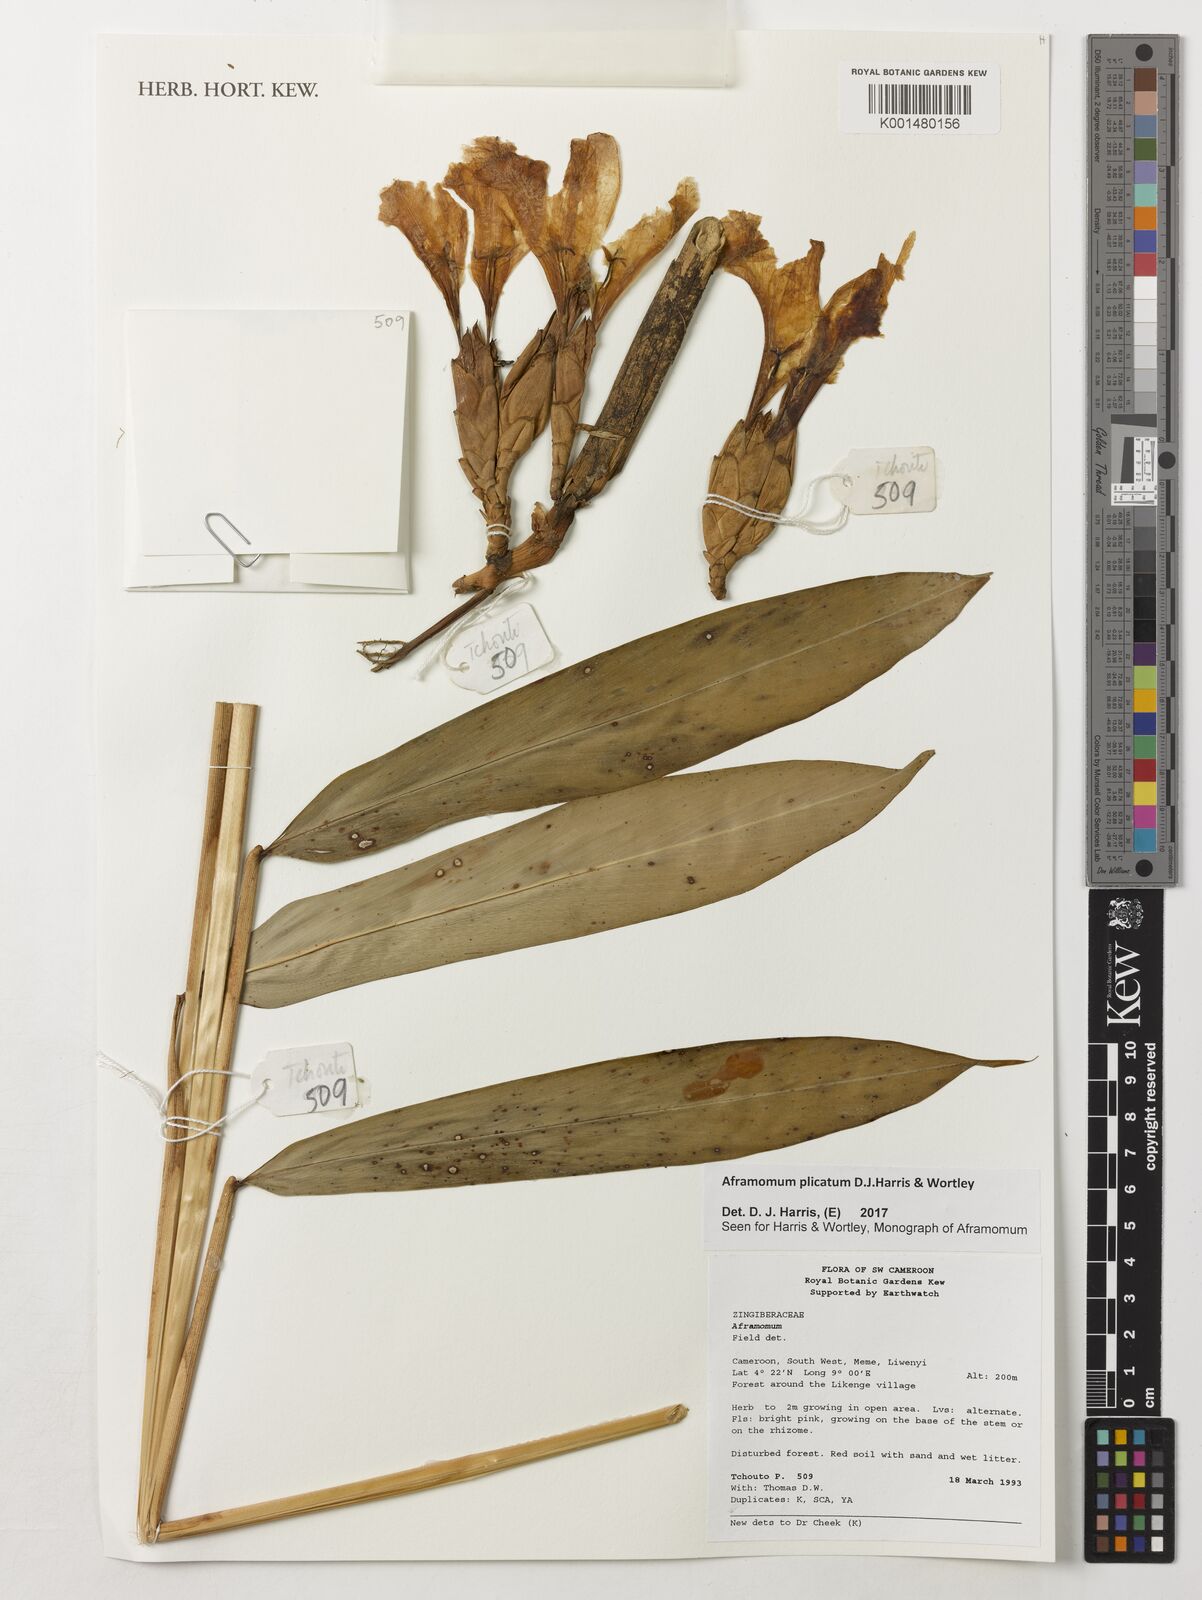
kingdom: Plantae
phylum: Tracheophyta
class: Liliopsida
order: Zingiberales
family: Zingiberaceae
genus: Aframomum
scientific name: Aframomum plicatum
